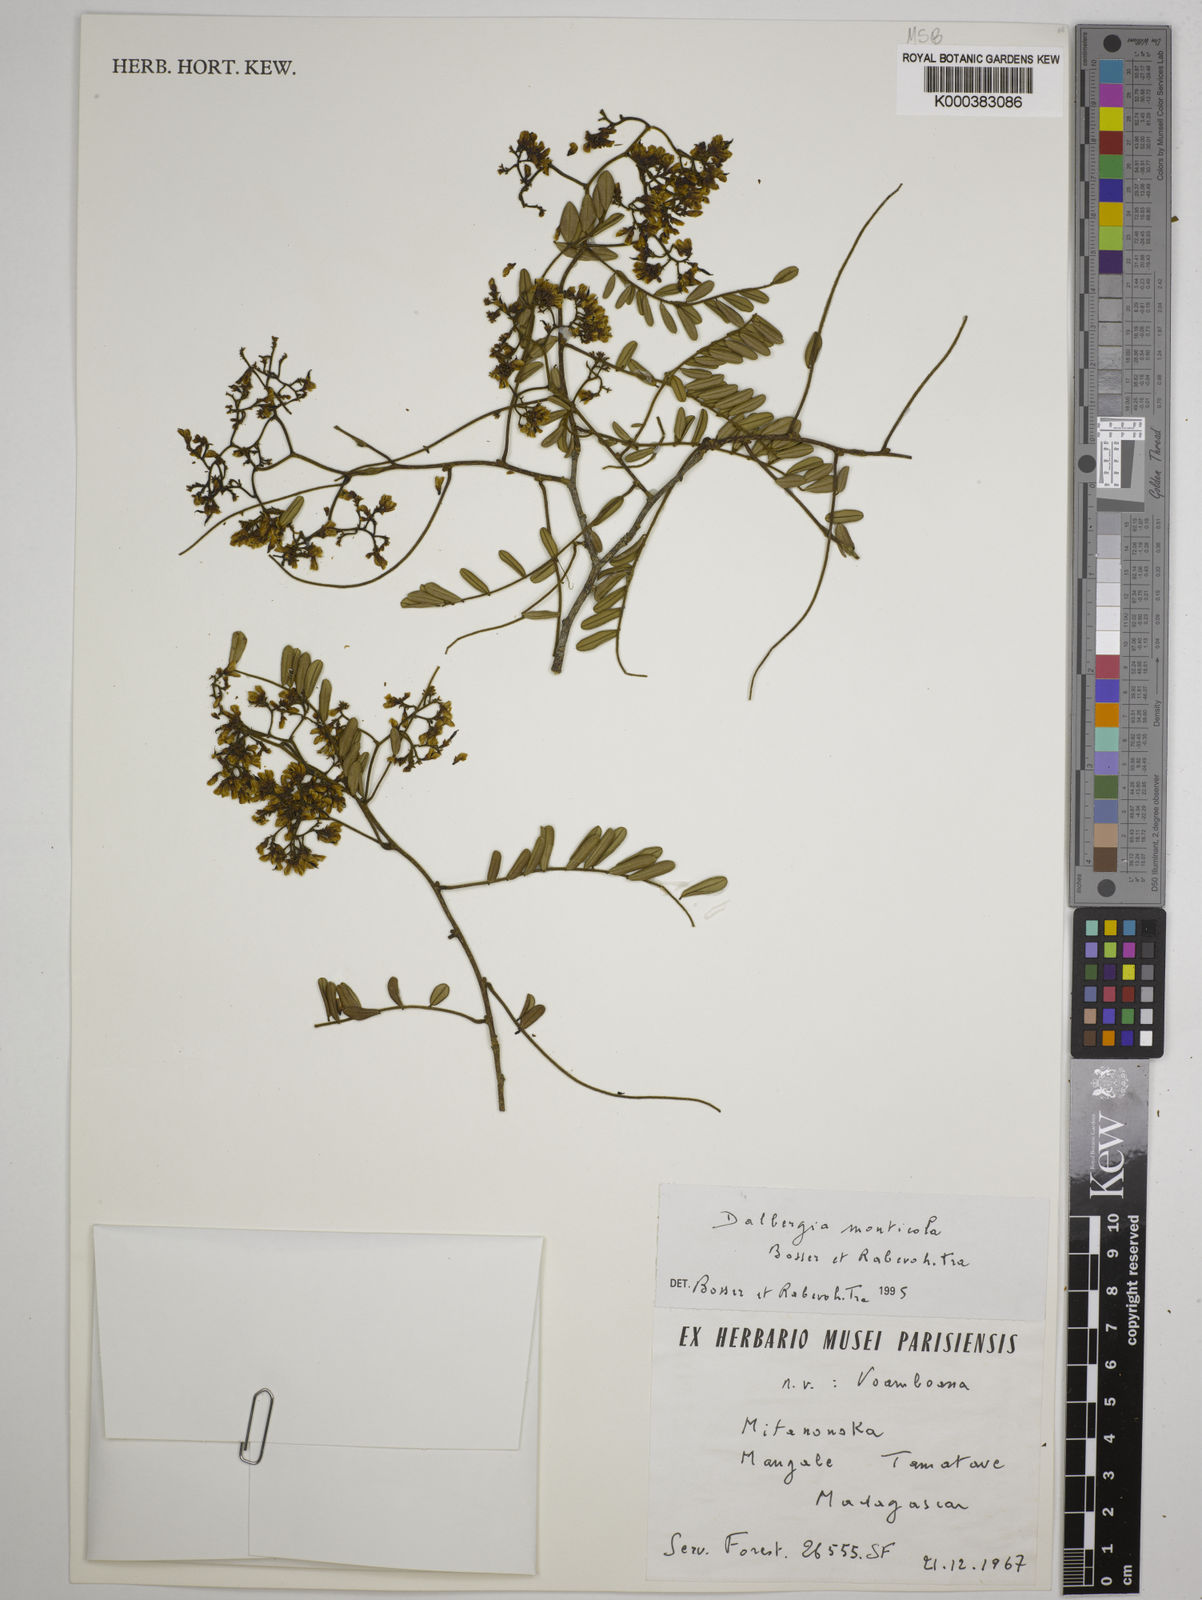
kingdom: Plantae
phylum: Tracheophyta
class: Magnoliopsida
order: Fabales
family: Fabaceae
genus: Dalbergia
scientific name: Dalbergia monticola
